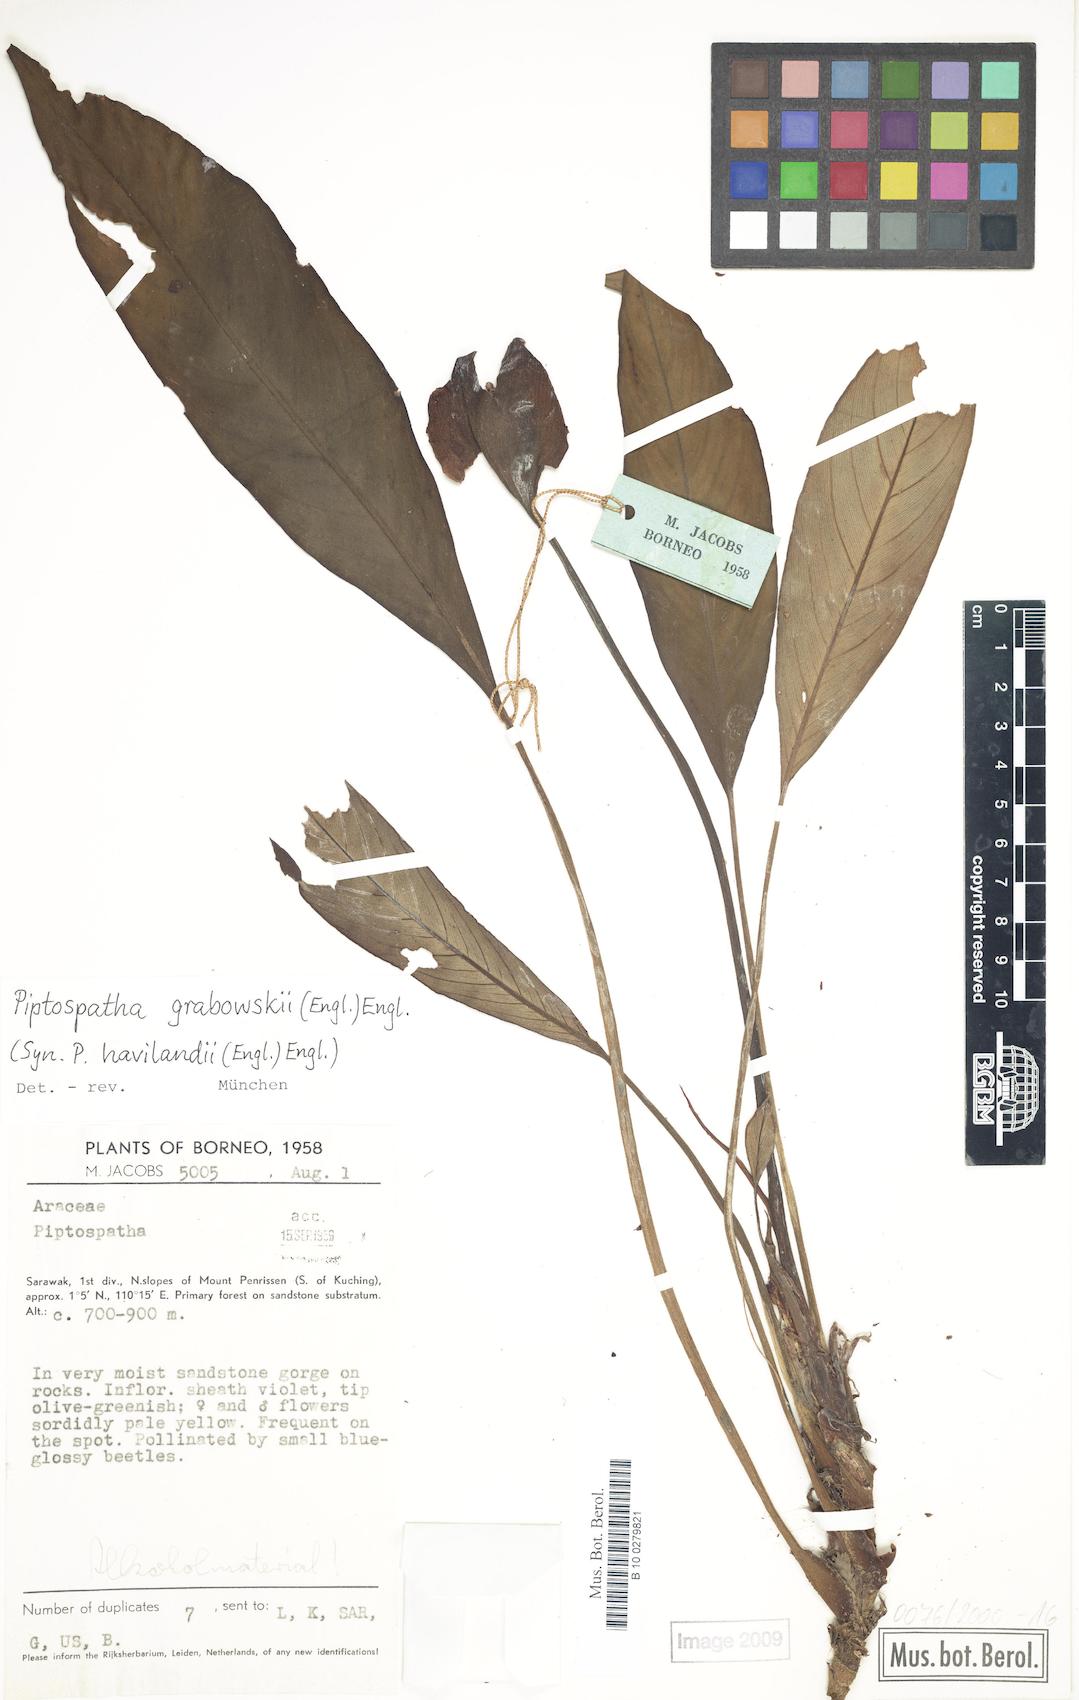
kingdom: Plantae
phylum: Tracheophyta
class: Liliopsida
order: Alismatales
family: Araceae
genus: Ooia
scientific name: Ooia grabowskii
